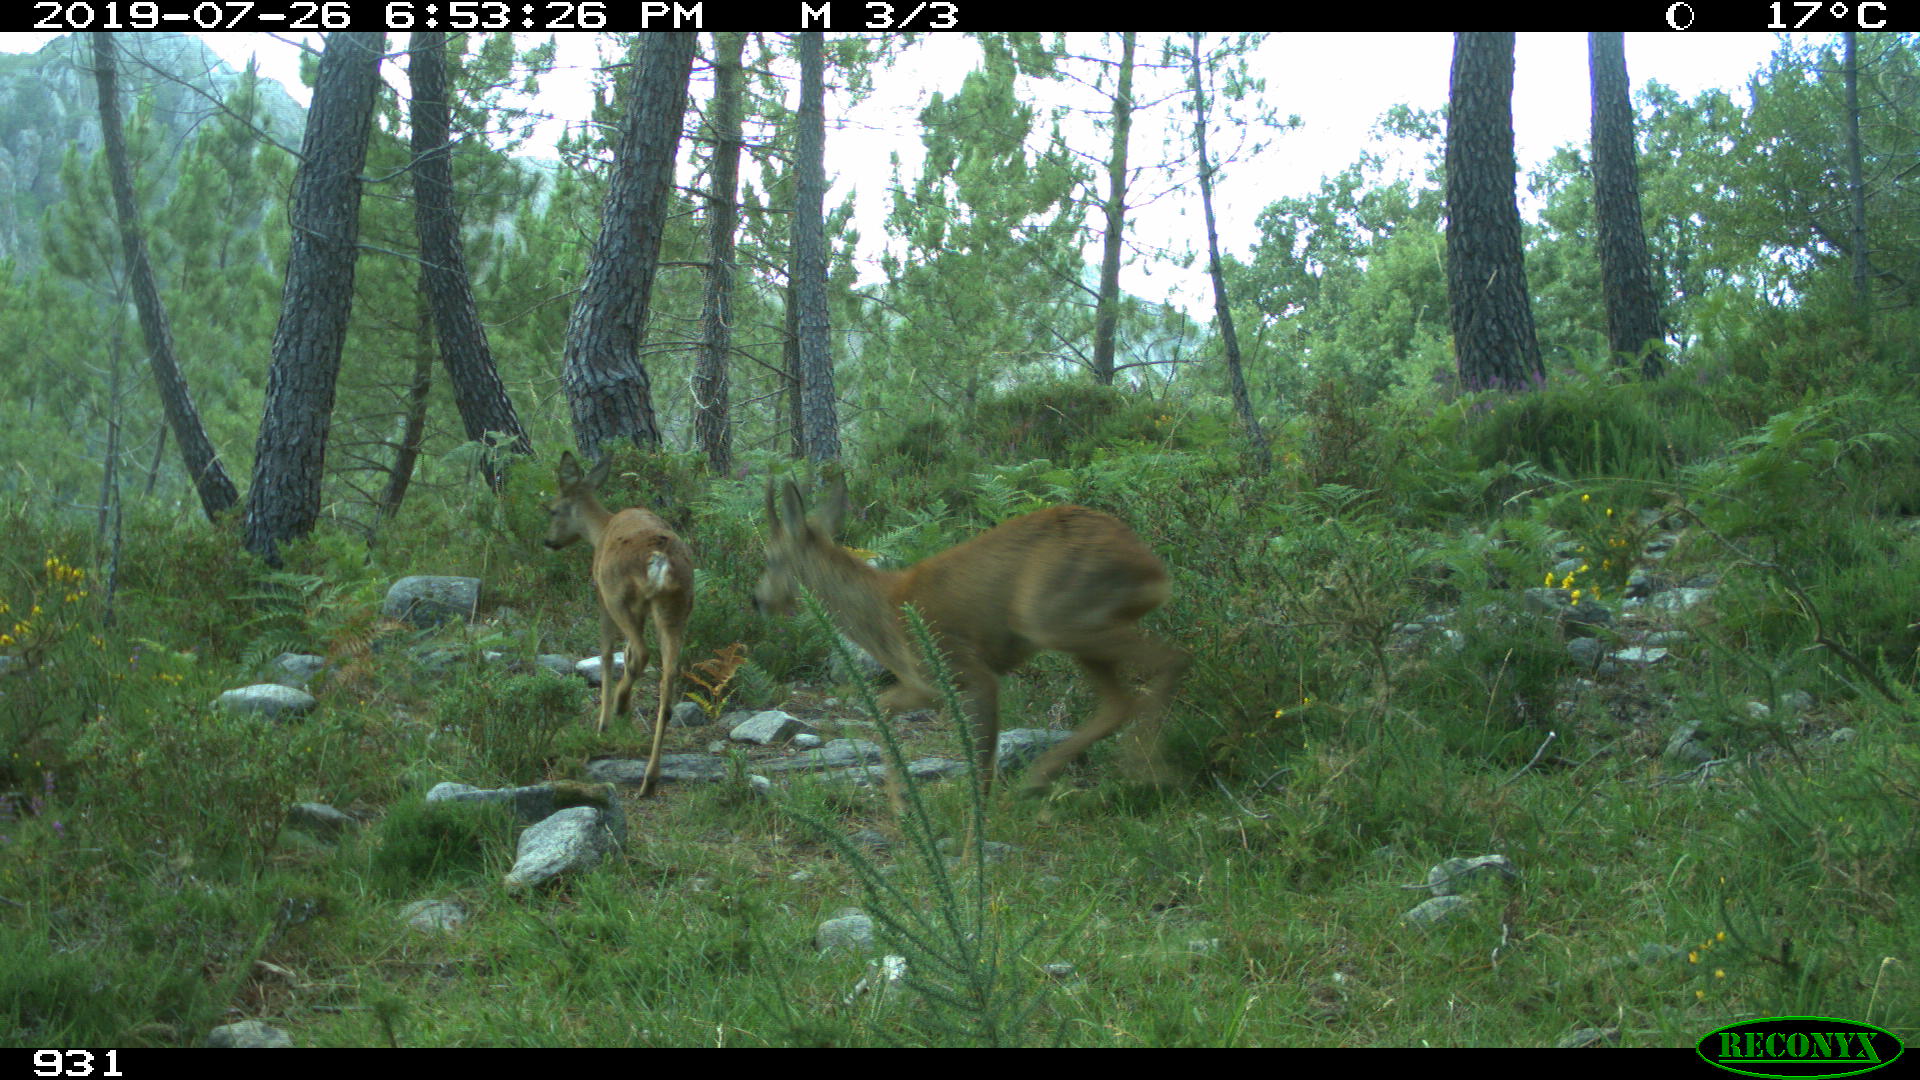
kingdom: Animalia
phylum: Chordata
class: Mammalia
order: Artiodactyla
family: Cervidae
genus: Capreolus
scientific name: Capreolus capreolus
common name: Western roe deer
